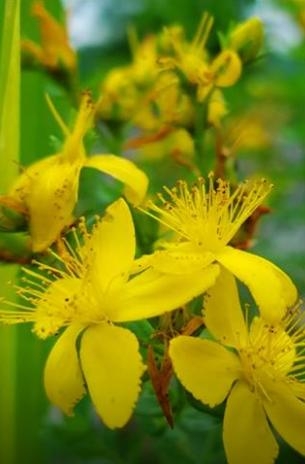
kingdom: Plantae
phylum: Tracheophyta
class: Magnoliopsida
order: Malpighiales
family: Hypericaceae
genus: Hypericum
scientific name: Hypericum perforatum
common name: St. John's Wort
